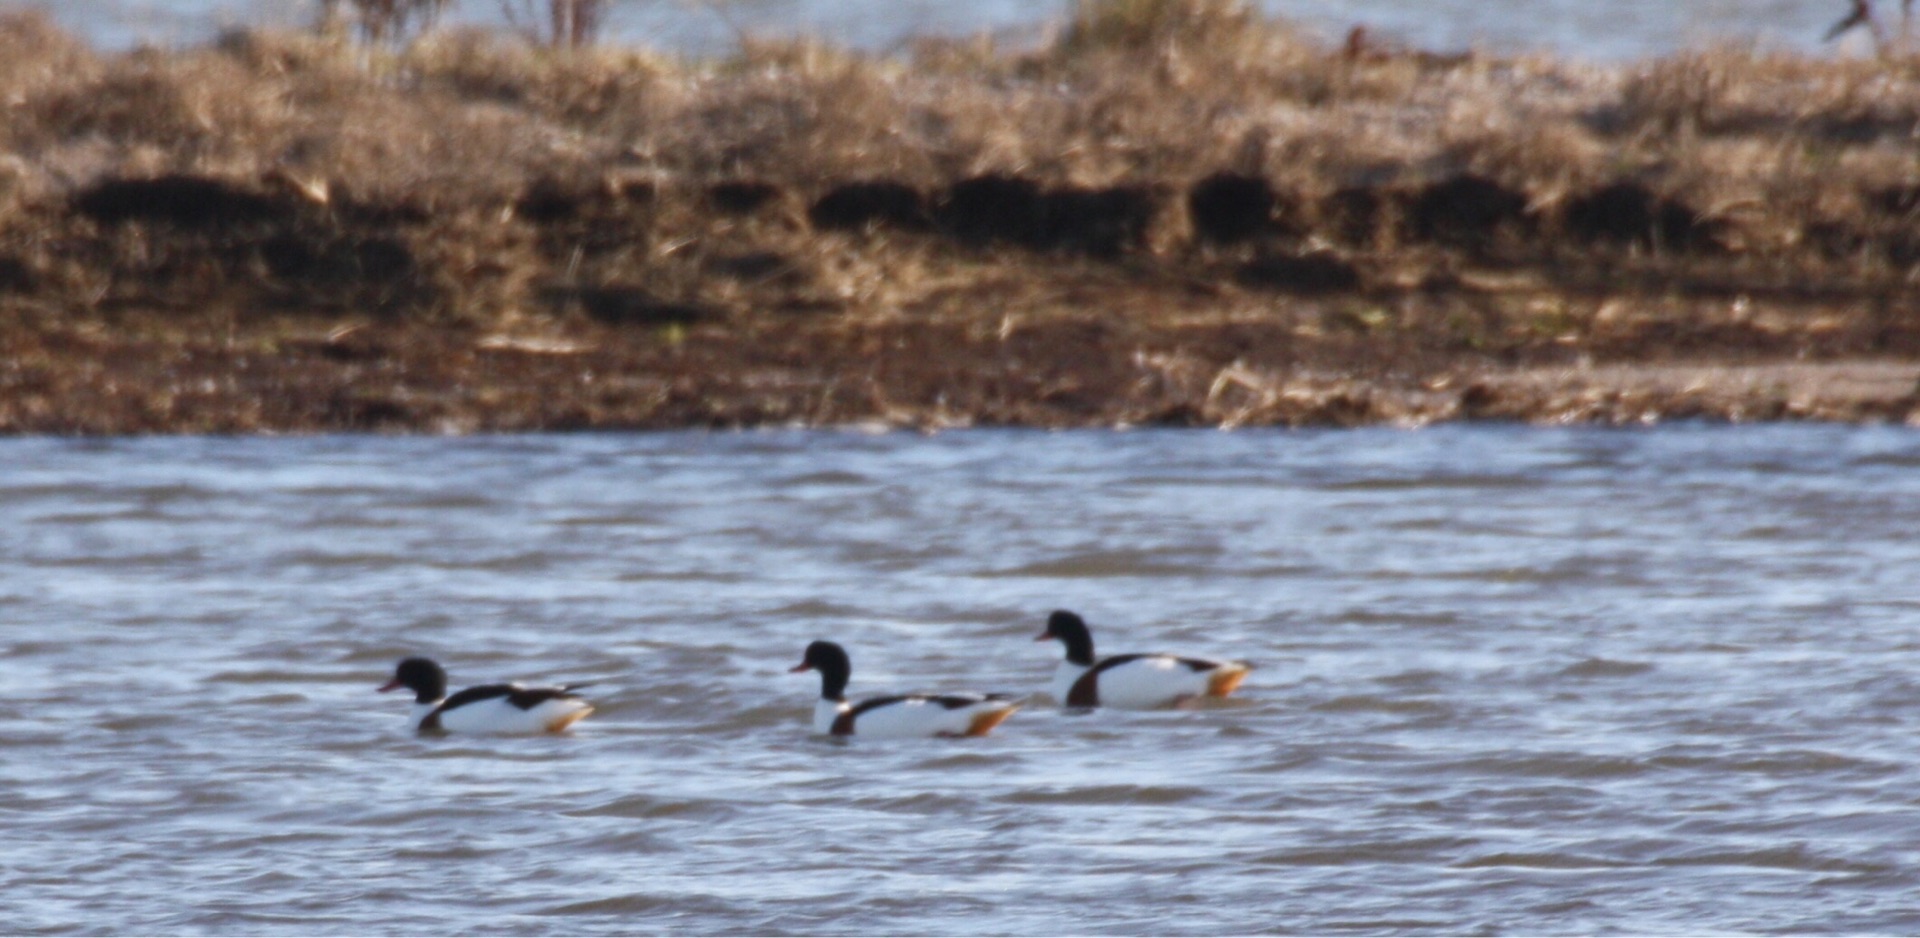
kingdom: Animalia
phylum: Chordata
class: Aves
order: Anseriformes
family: Anatidae
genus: Tadorna
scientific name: Tadorna tadorna
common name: Gravand
